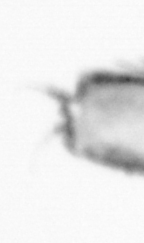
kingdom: Animalia
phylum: Arthropoda
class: Copepoda
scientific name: Copepoda
